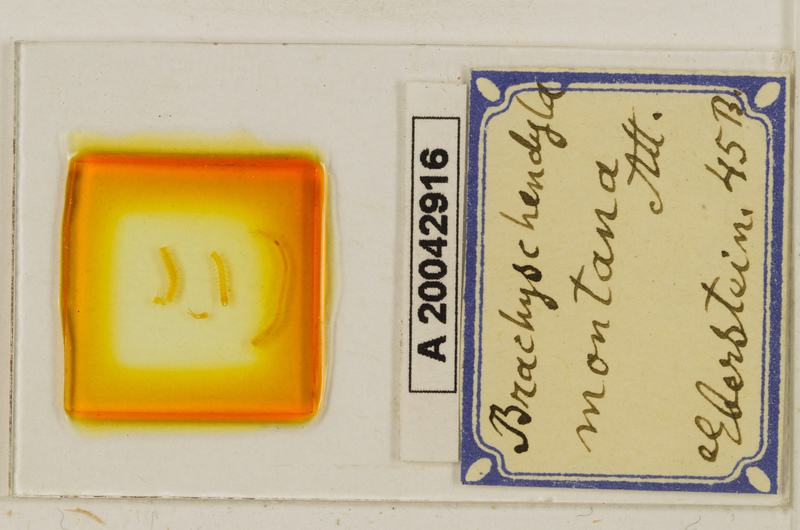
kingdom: Animalia
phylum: Arthropoda
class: Chilopoda
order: Geophilomorpha
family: Schendylidae
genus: Schendyla
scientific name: Schendyla
